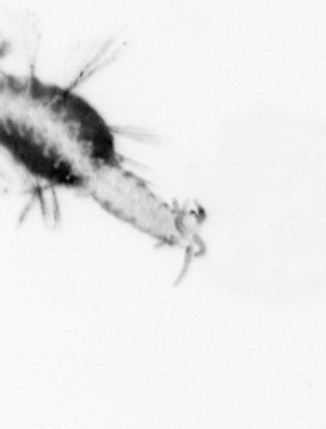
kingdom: Animalia
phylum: Annelida
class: Polychaeta
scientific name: Polychaeta
